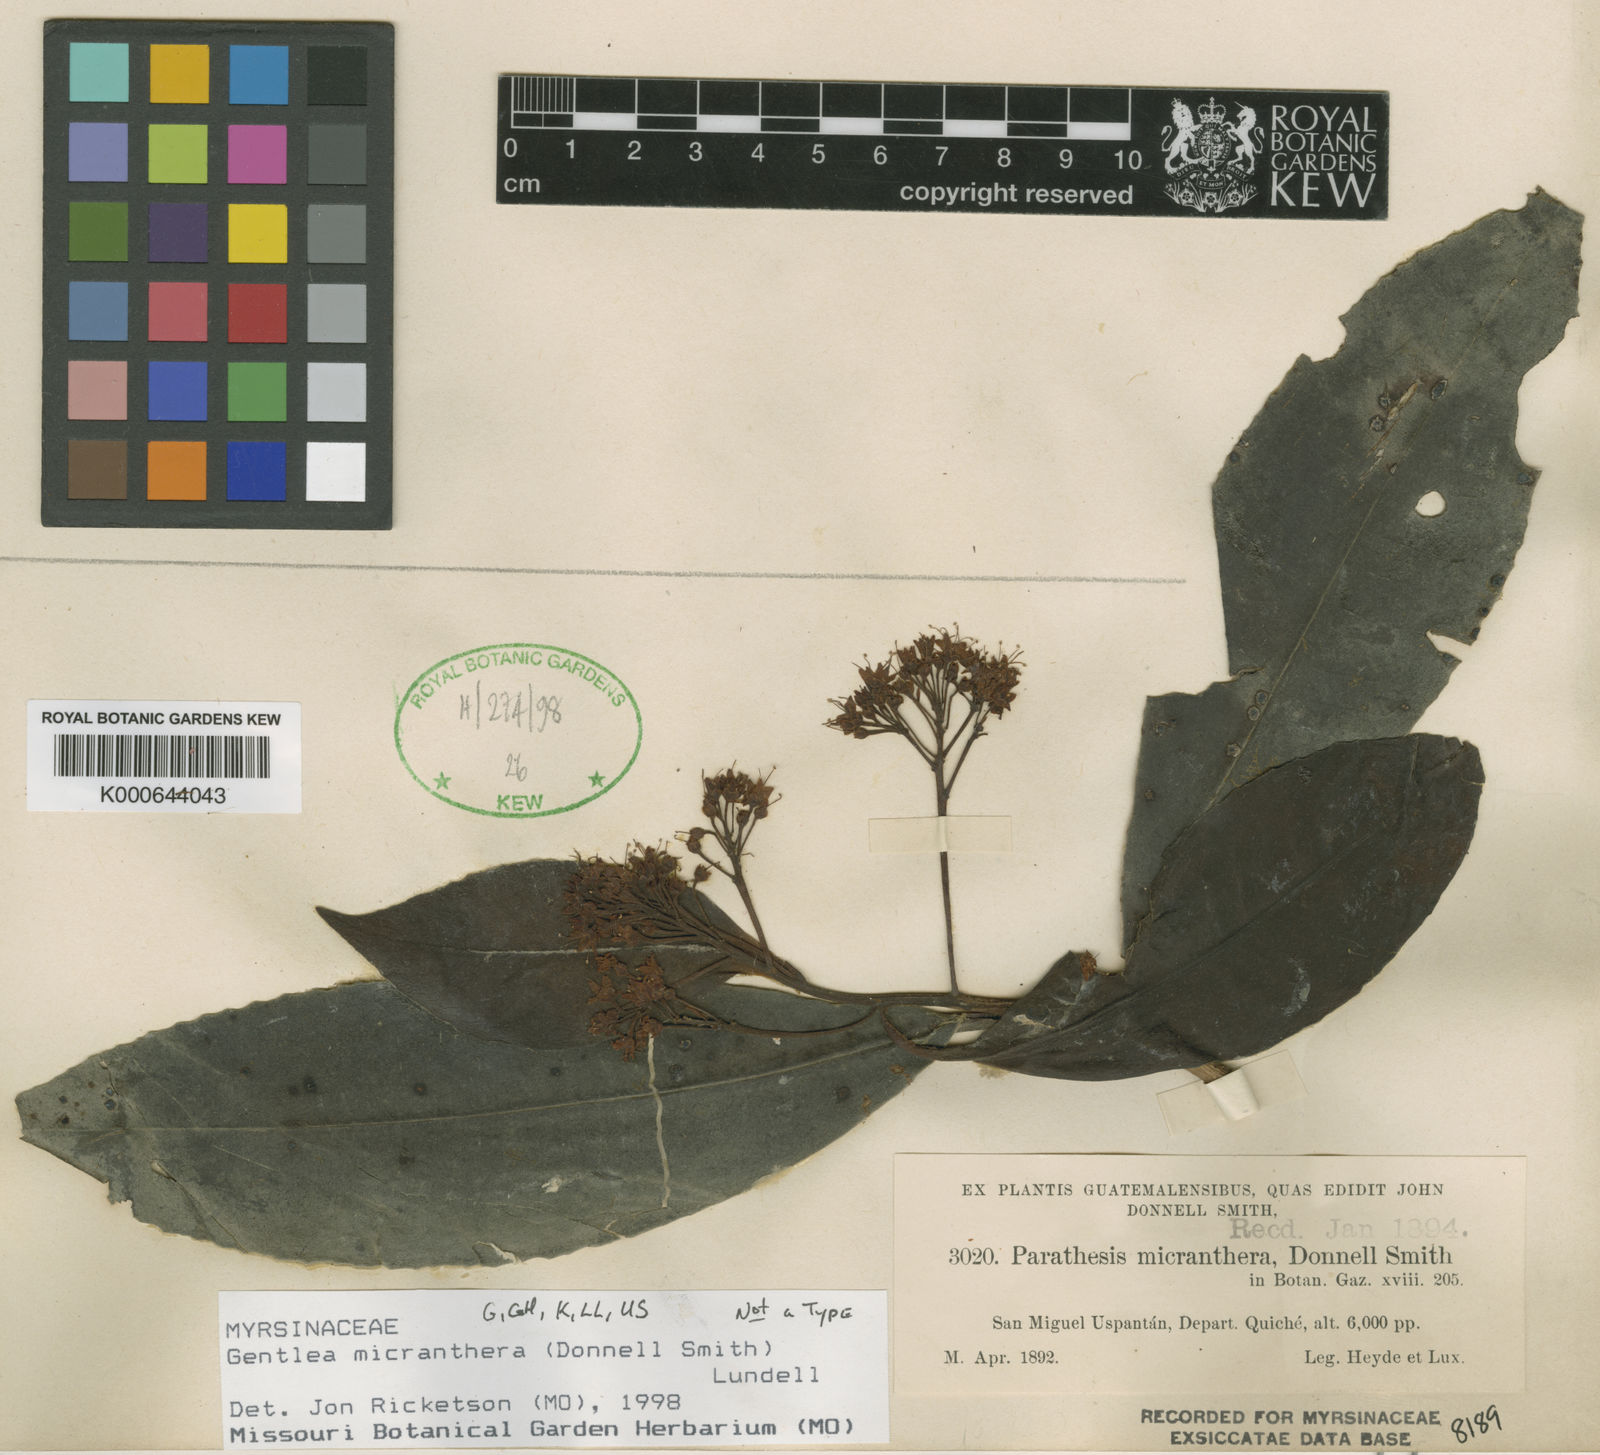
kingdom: Plantae
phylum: Tracheophyta
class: Magnoliopsida
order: Ericales
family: Primulaceae
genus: Gentlea
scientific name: Gentlea micranthera
